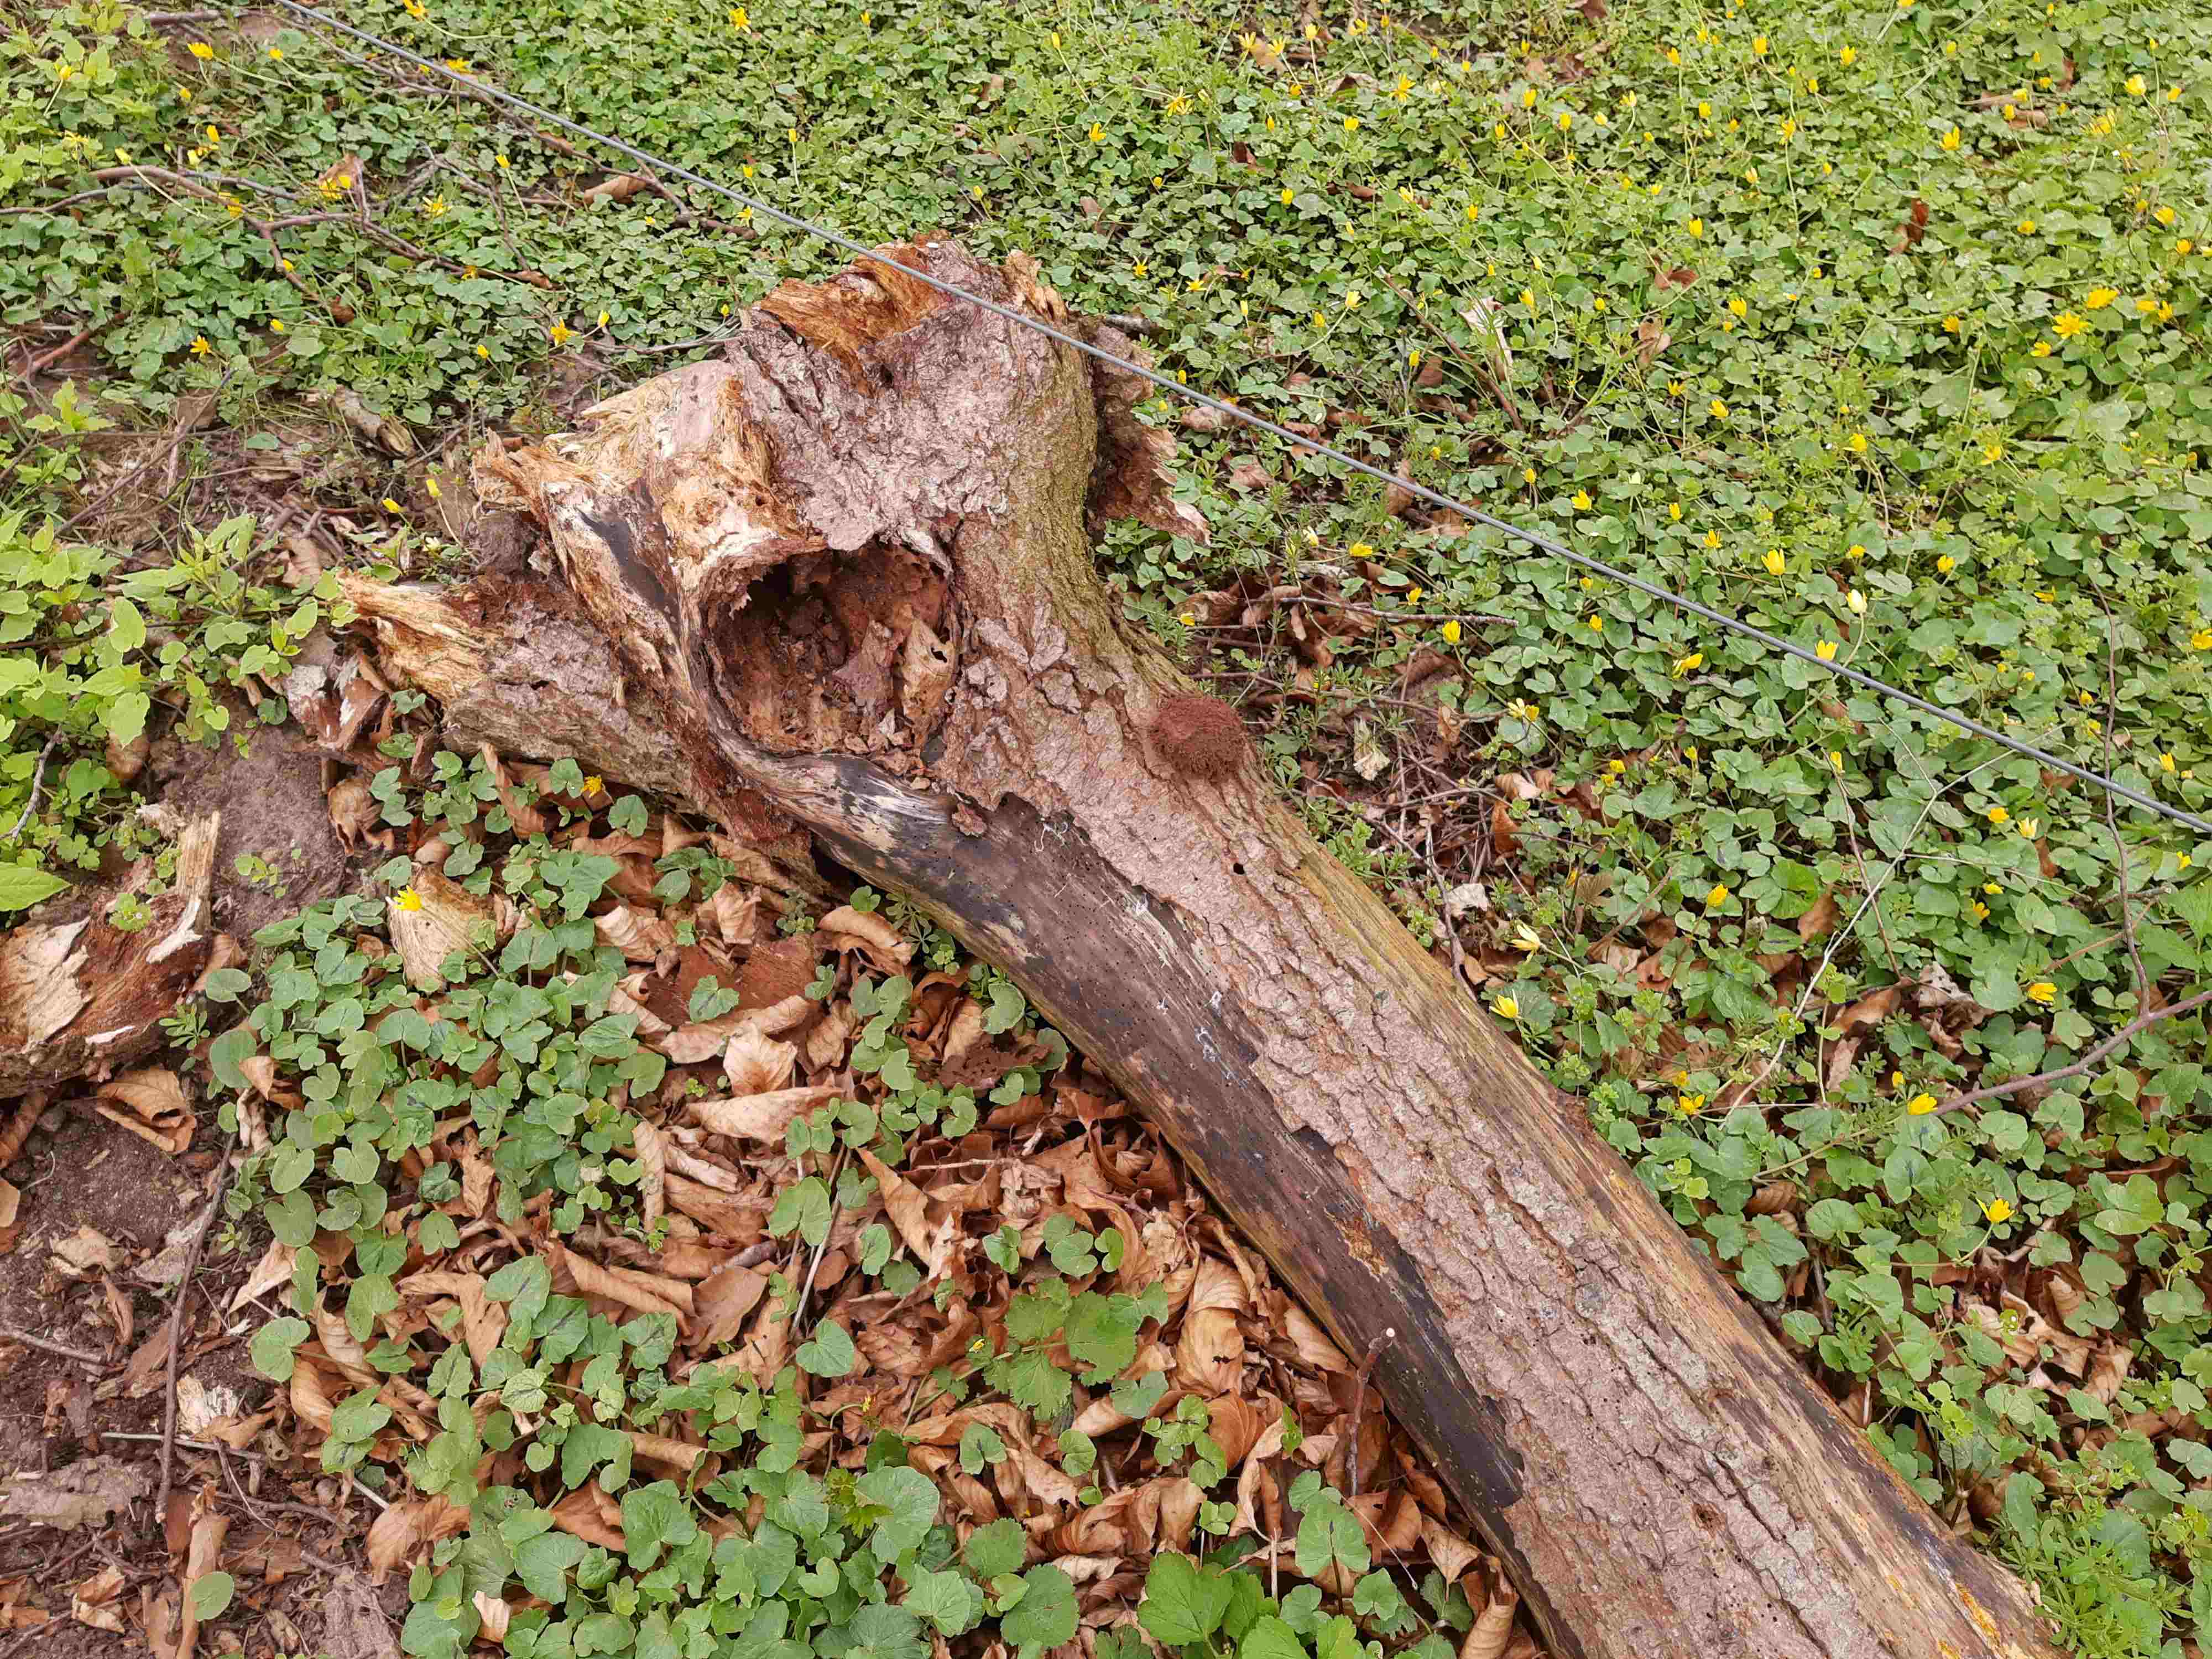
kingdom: Protozoa
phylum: Mycetozoa
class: Myxomycetes
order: Cribrariales
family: Tubiferaceae
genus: Reticularia
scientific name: Reticularia lycoperdon
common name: skinnende støvpude
